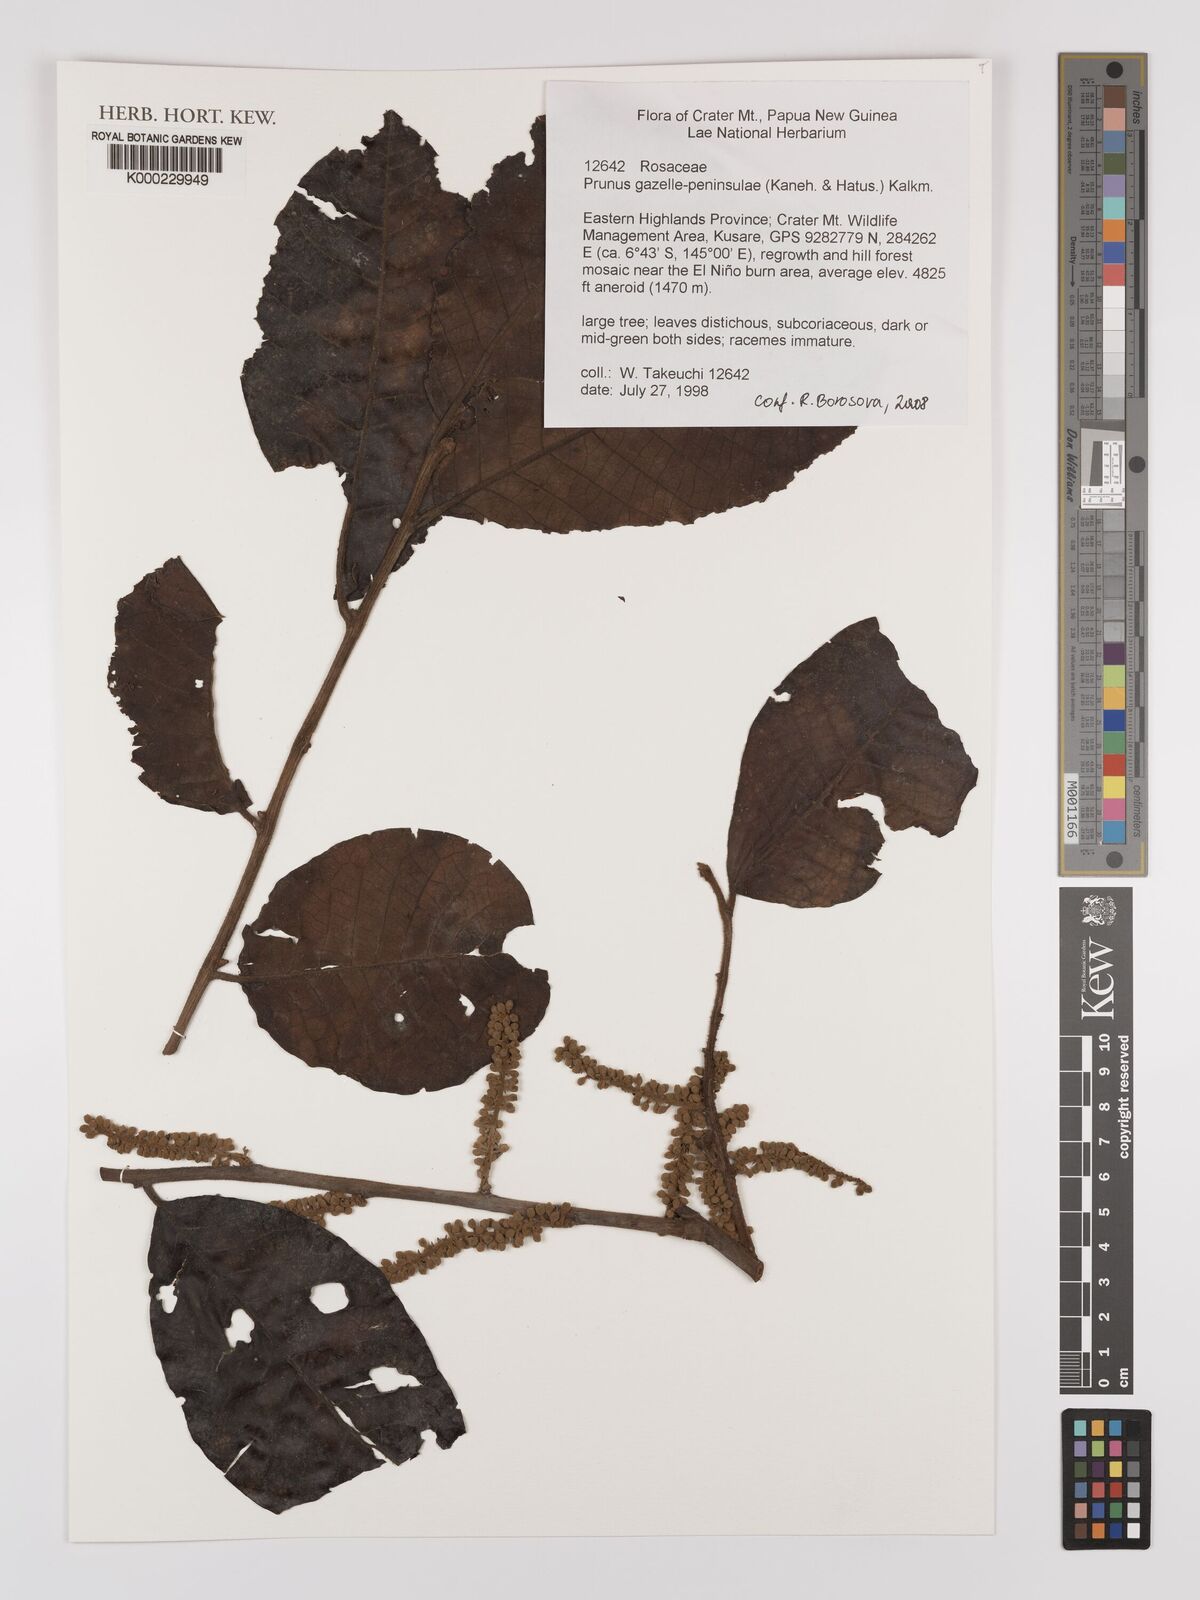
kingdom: Plantae
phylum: Tracheophyta
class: Magnoliopsida
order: Rosales
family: Rosaceae
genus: Prunus
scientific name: Prunus gazelle-peninsulae
